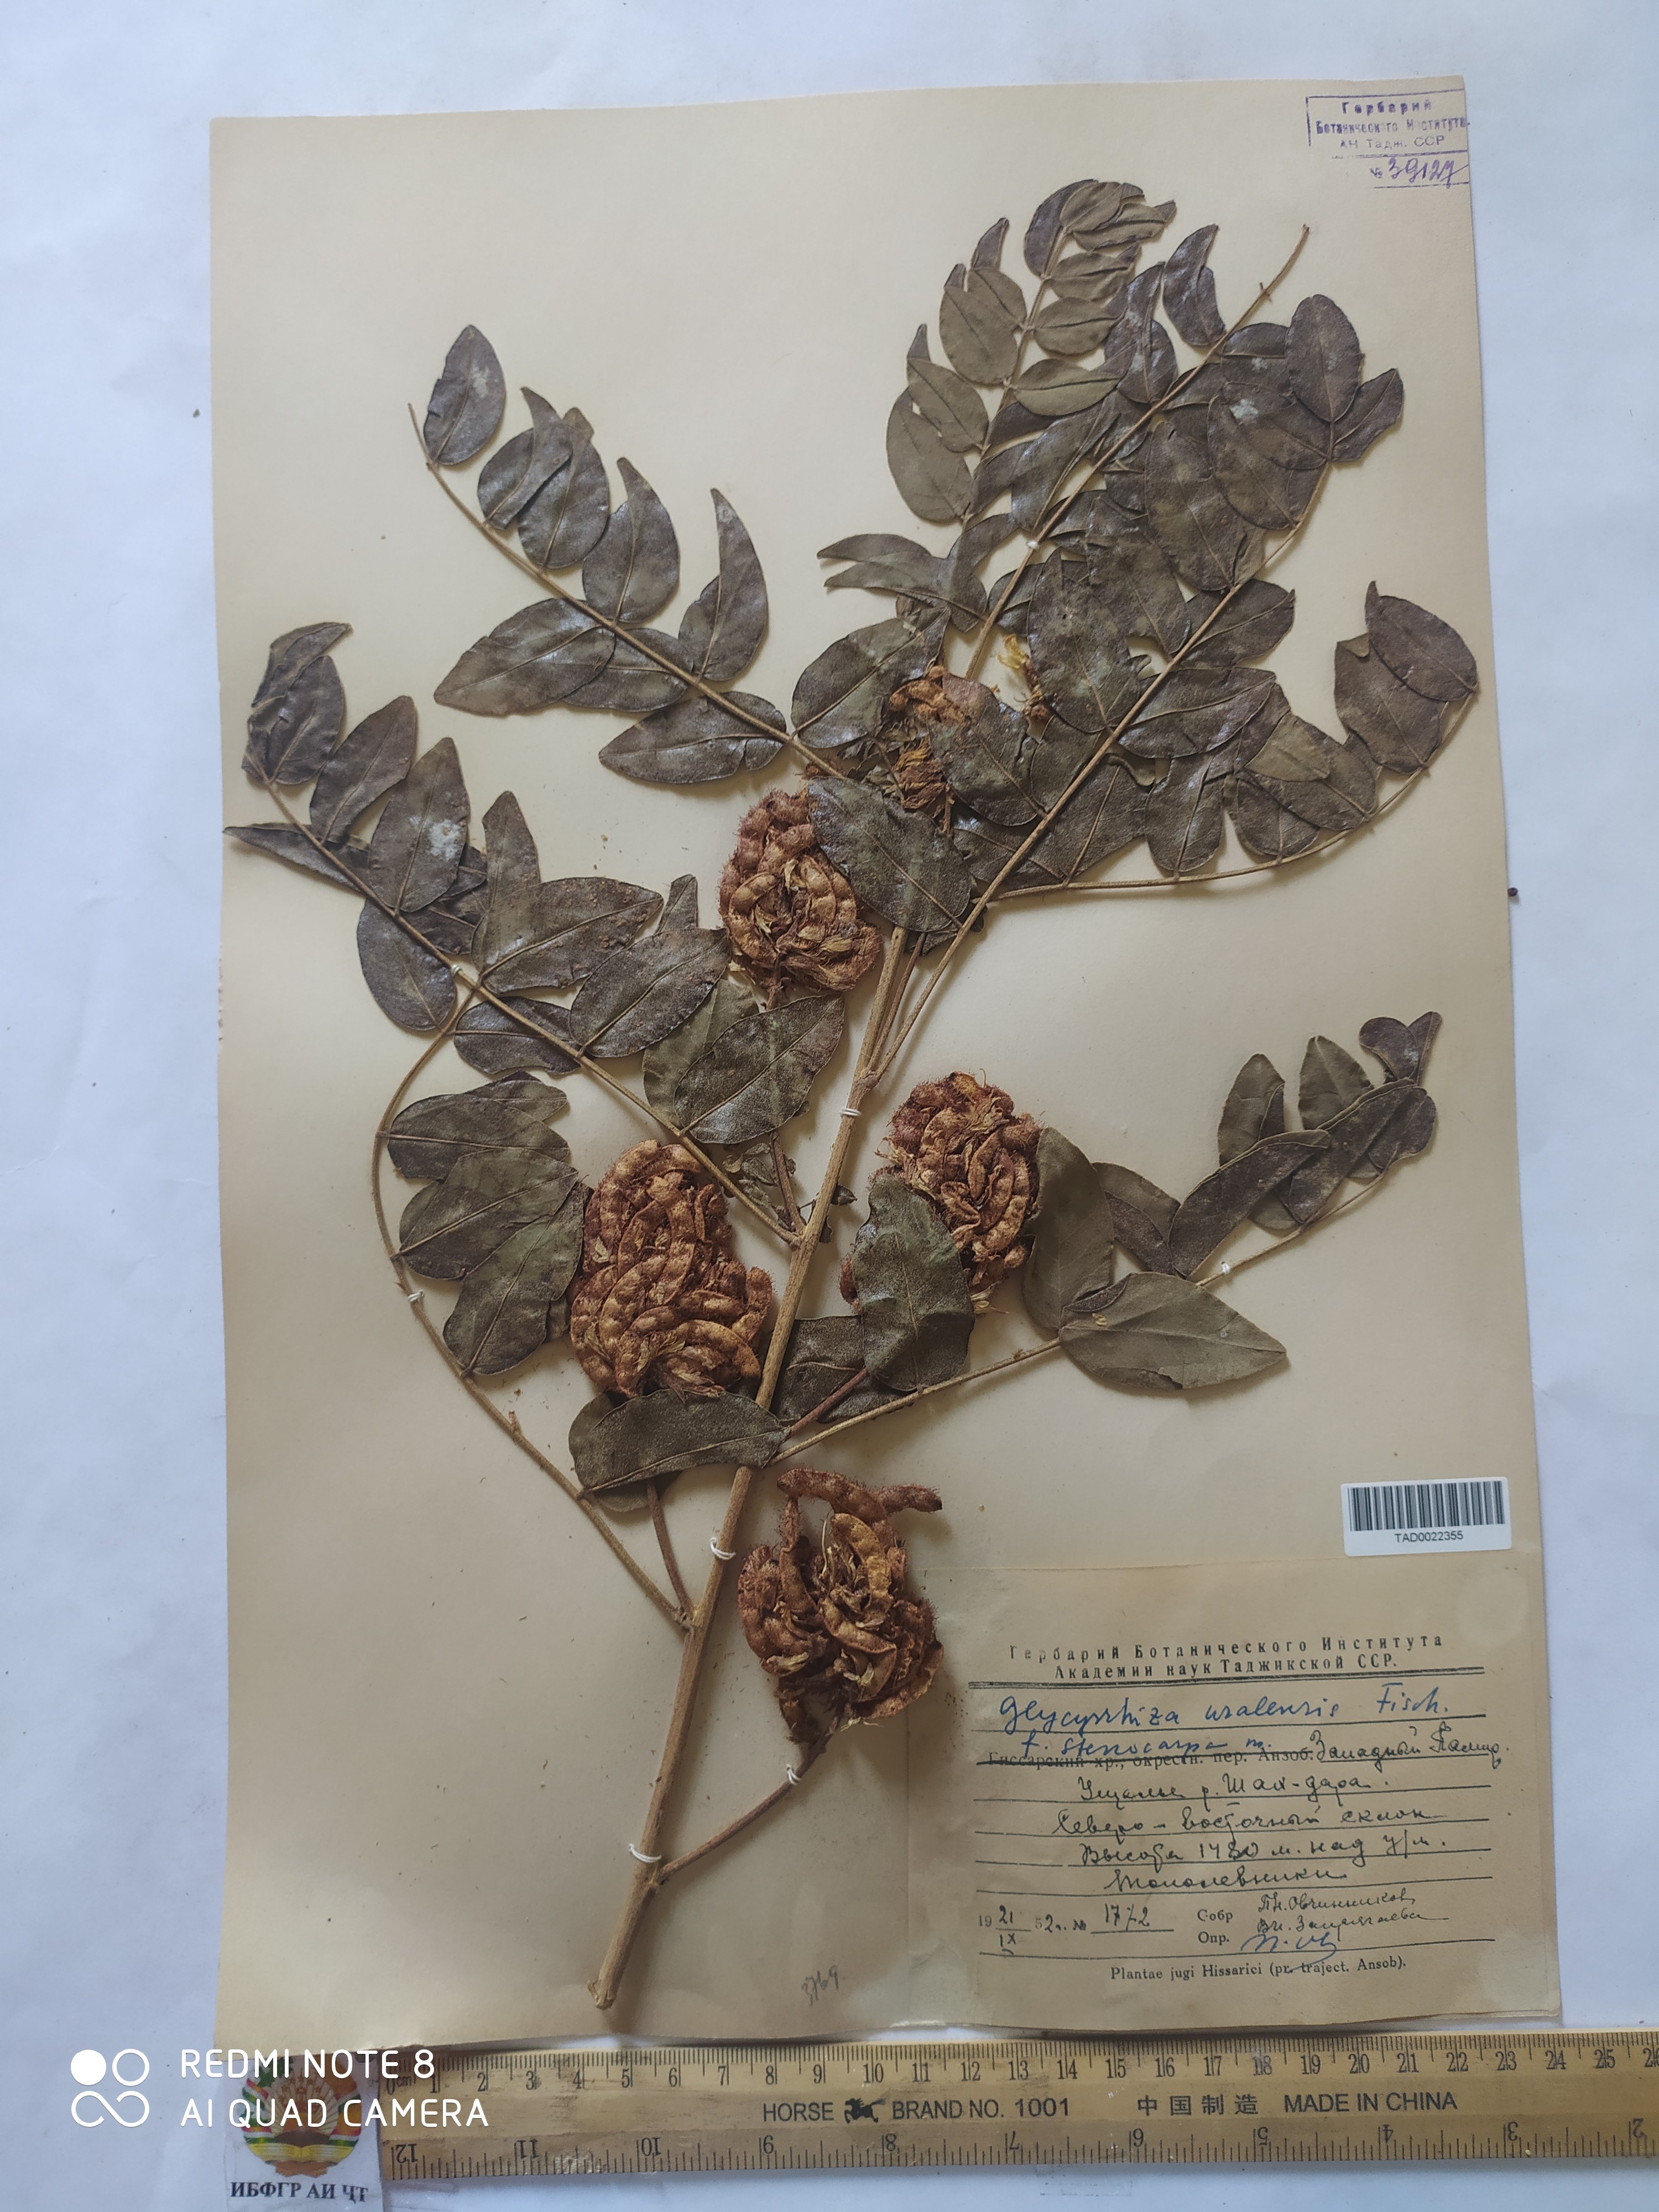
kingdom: Plantae
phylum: Tracheophyta
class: Magnoliopsida
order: Fabales
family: Fabaceae
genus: Glycyrrhiza
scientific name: Glycyrrhiza uralensis
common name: Chinese licorice
